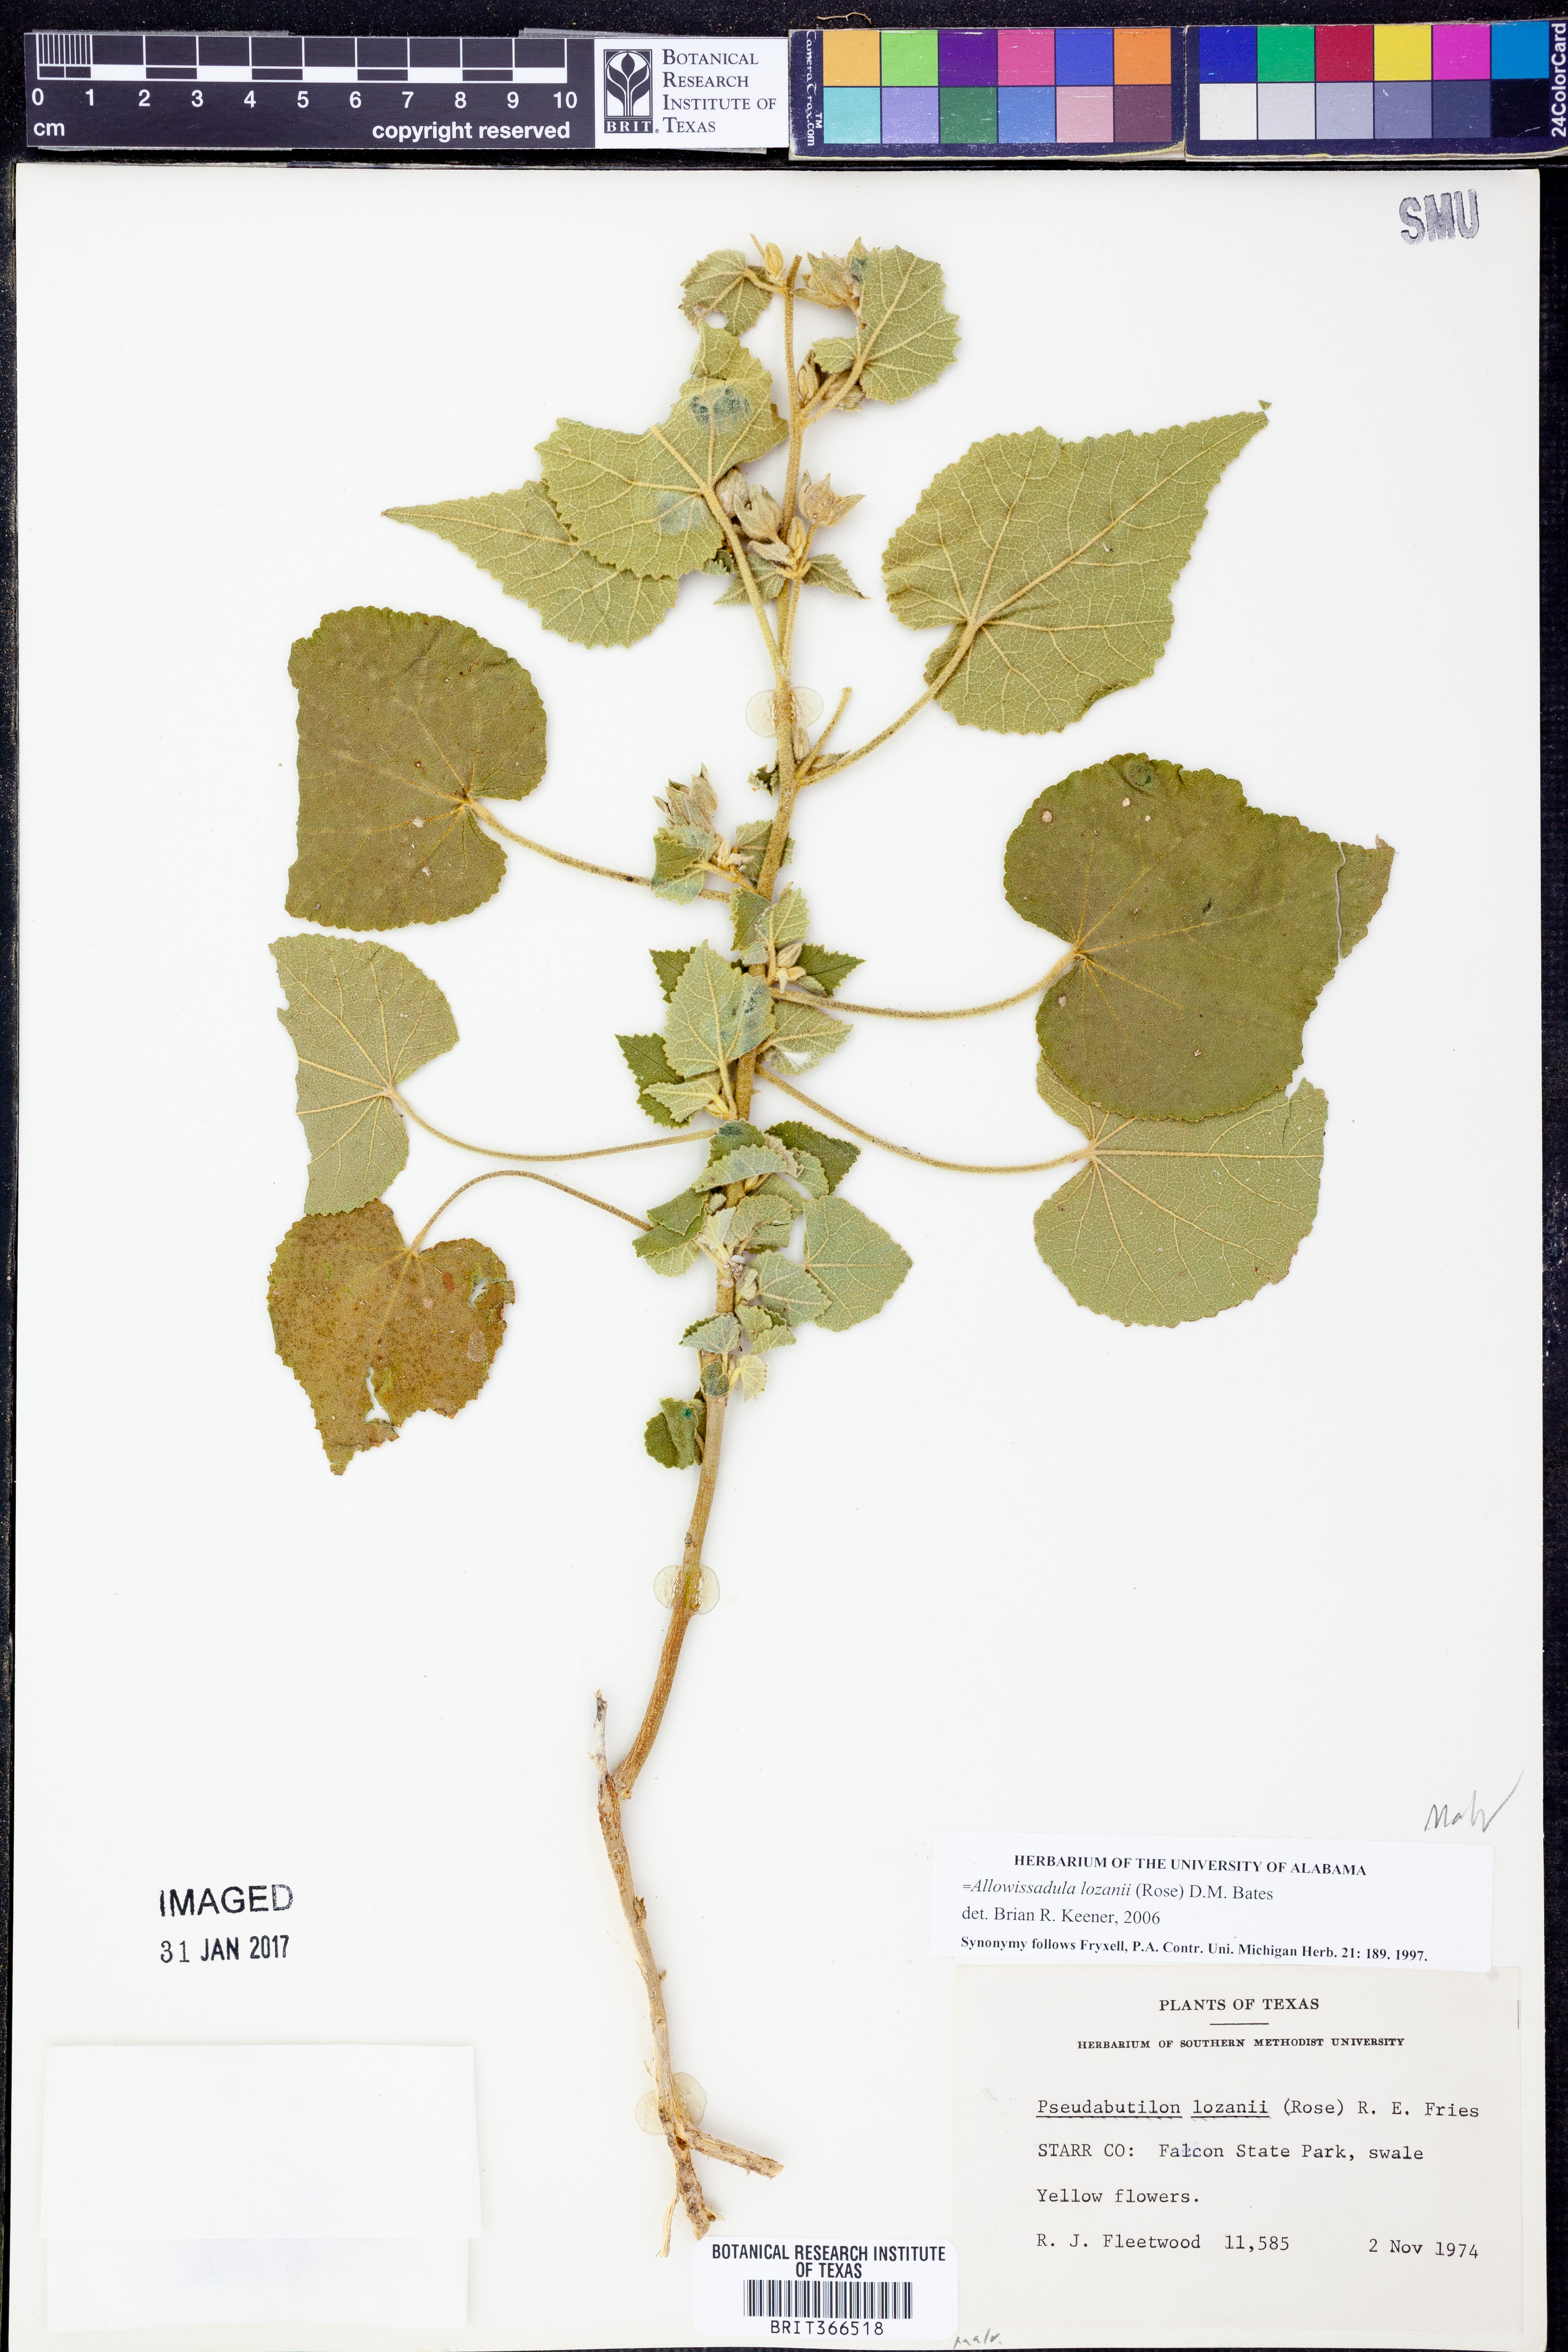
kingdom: Plantae
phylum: Tracheophyta
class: Magnoliopsida
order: Malvales
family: Malvaceae
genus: Allowissadula
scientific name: Allowissadula lozanii
